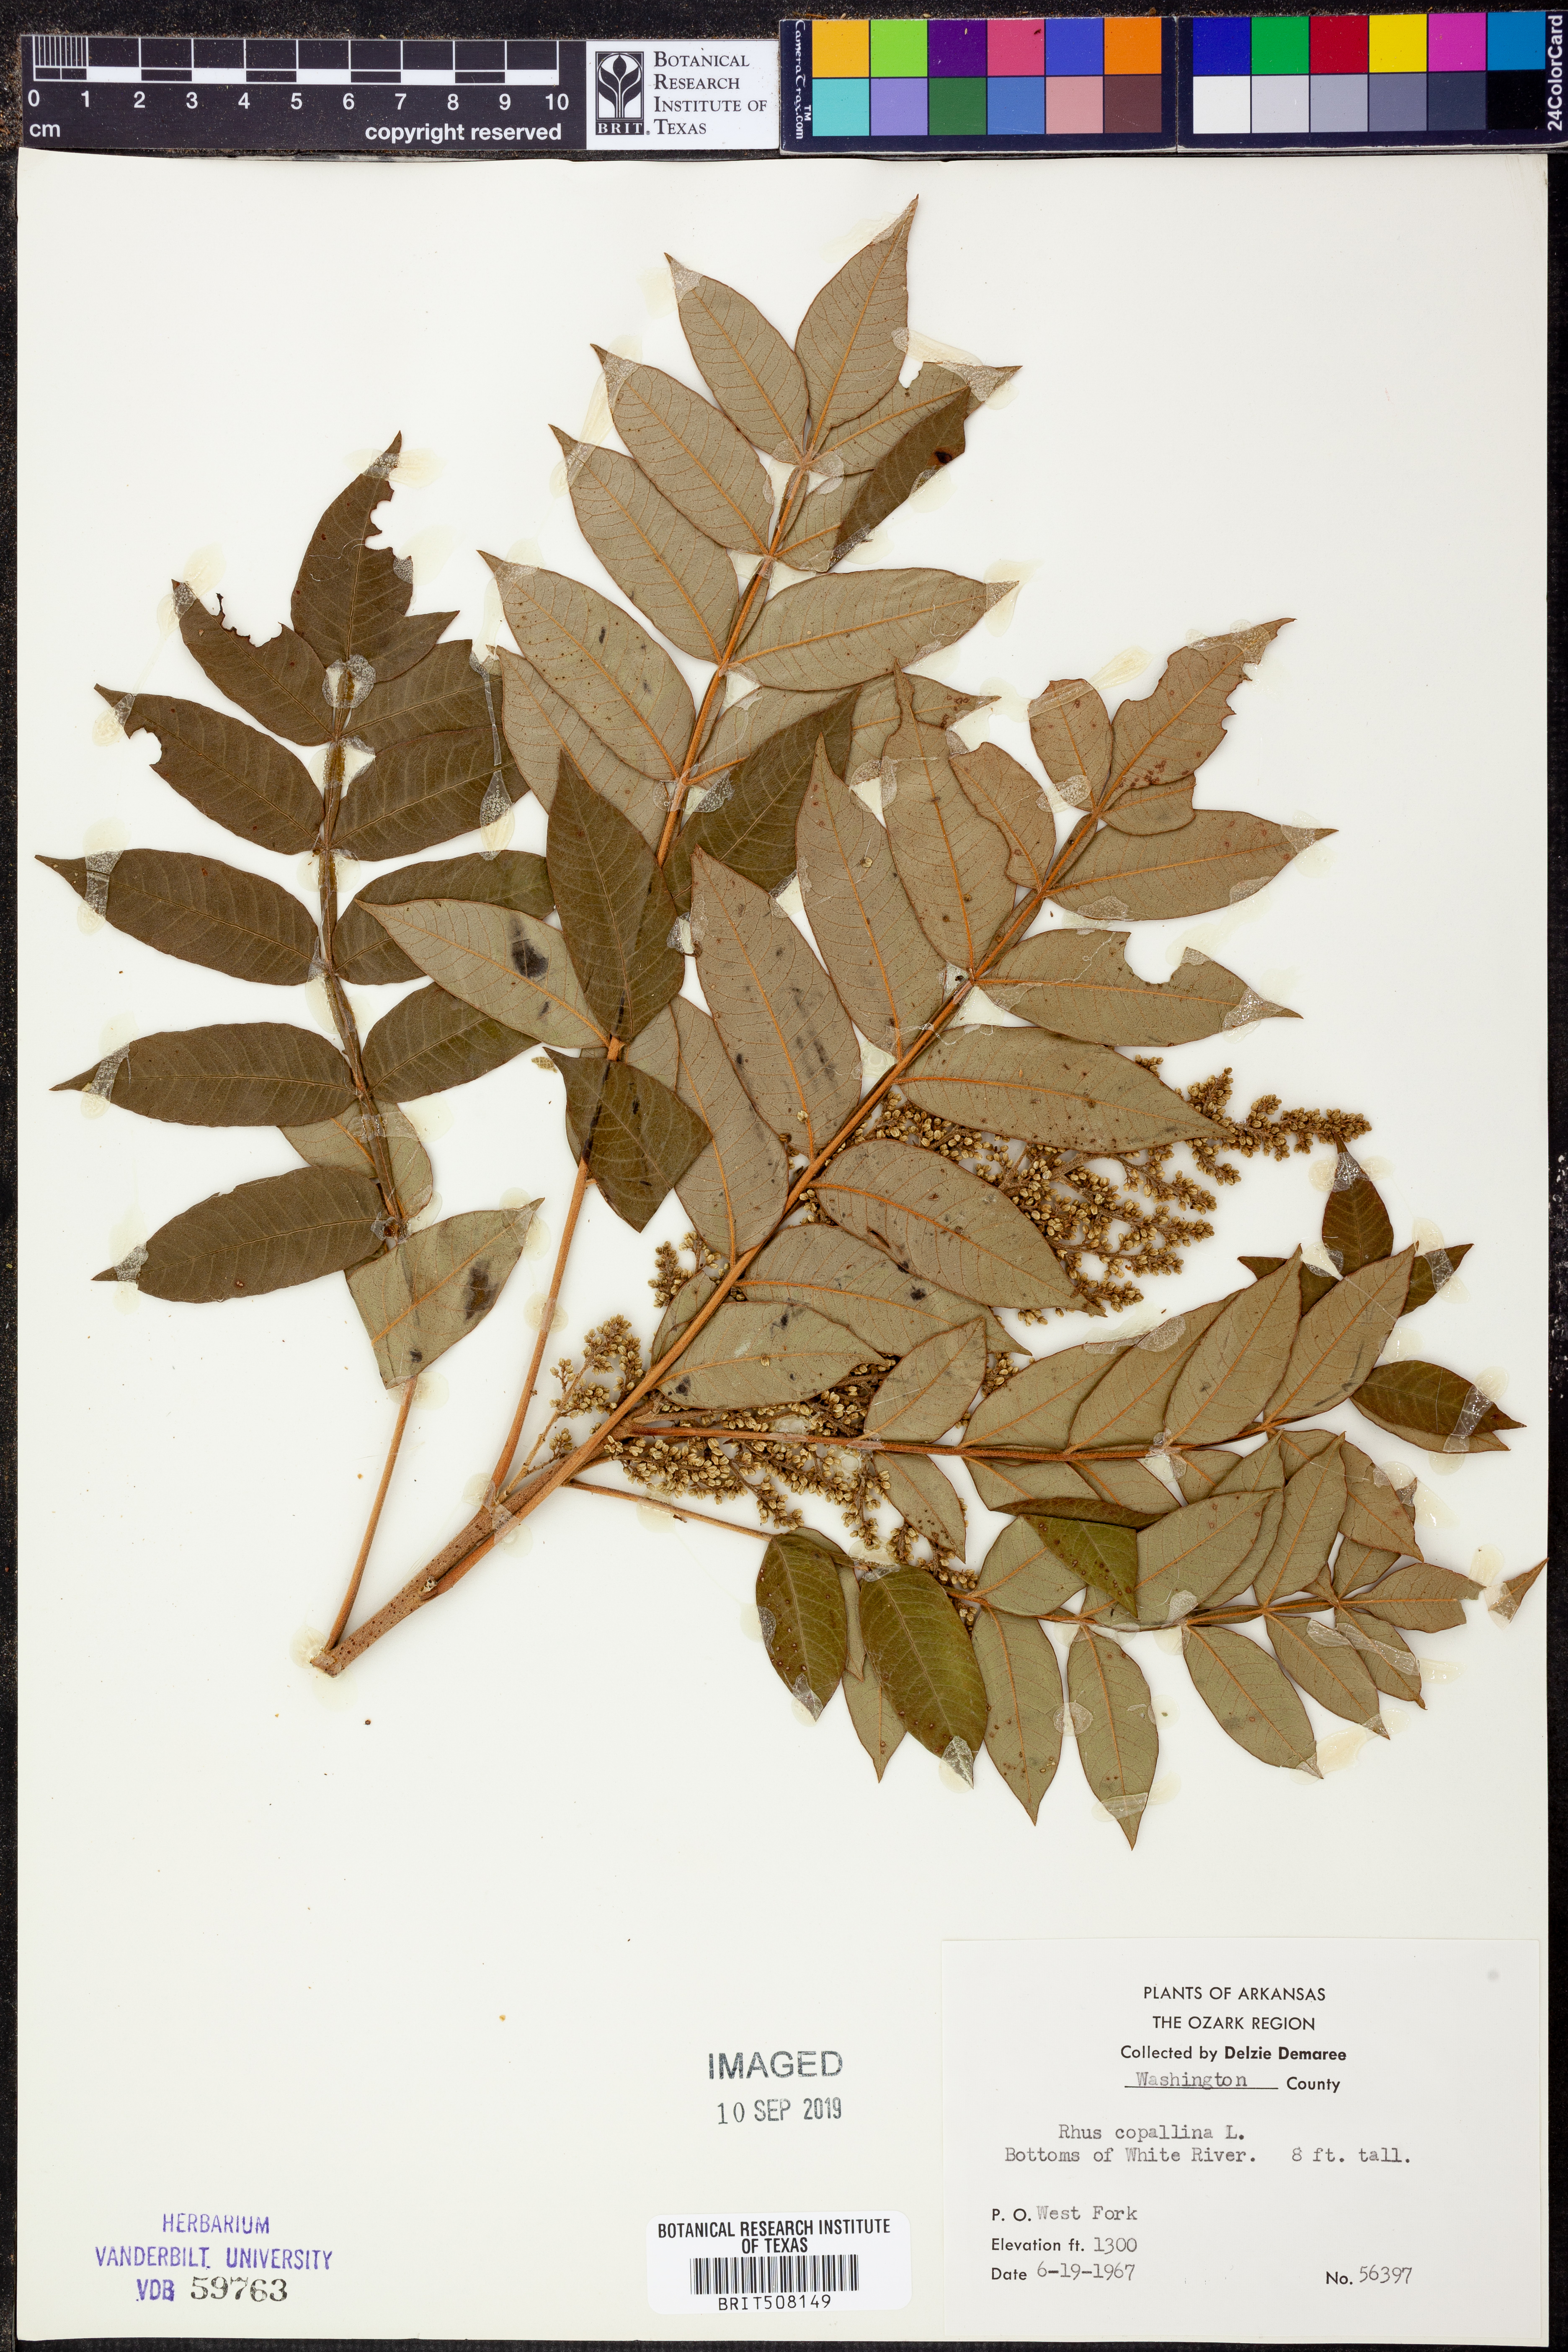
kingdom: Plantae
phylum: Tracheophyta
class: Magnoliopsida
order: Sapindales
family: Anacardiaceae
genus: Rhus
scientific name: Rhus copallina
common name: Shining sumac
